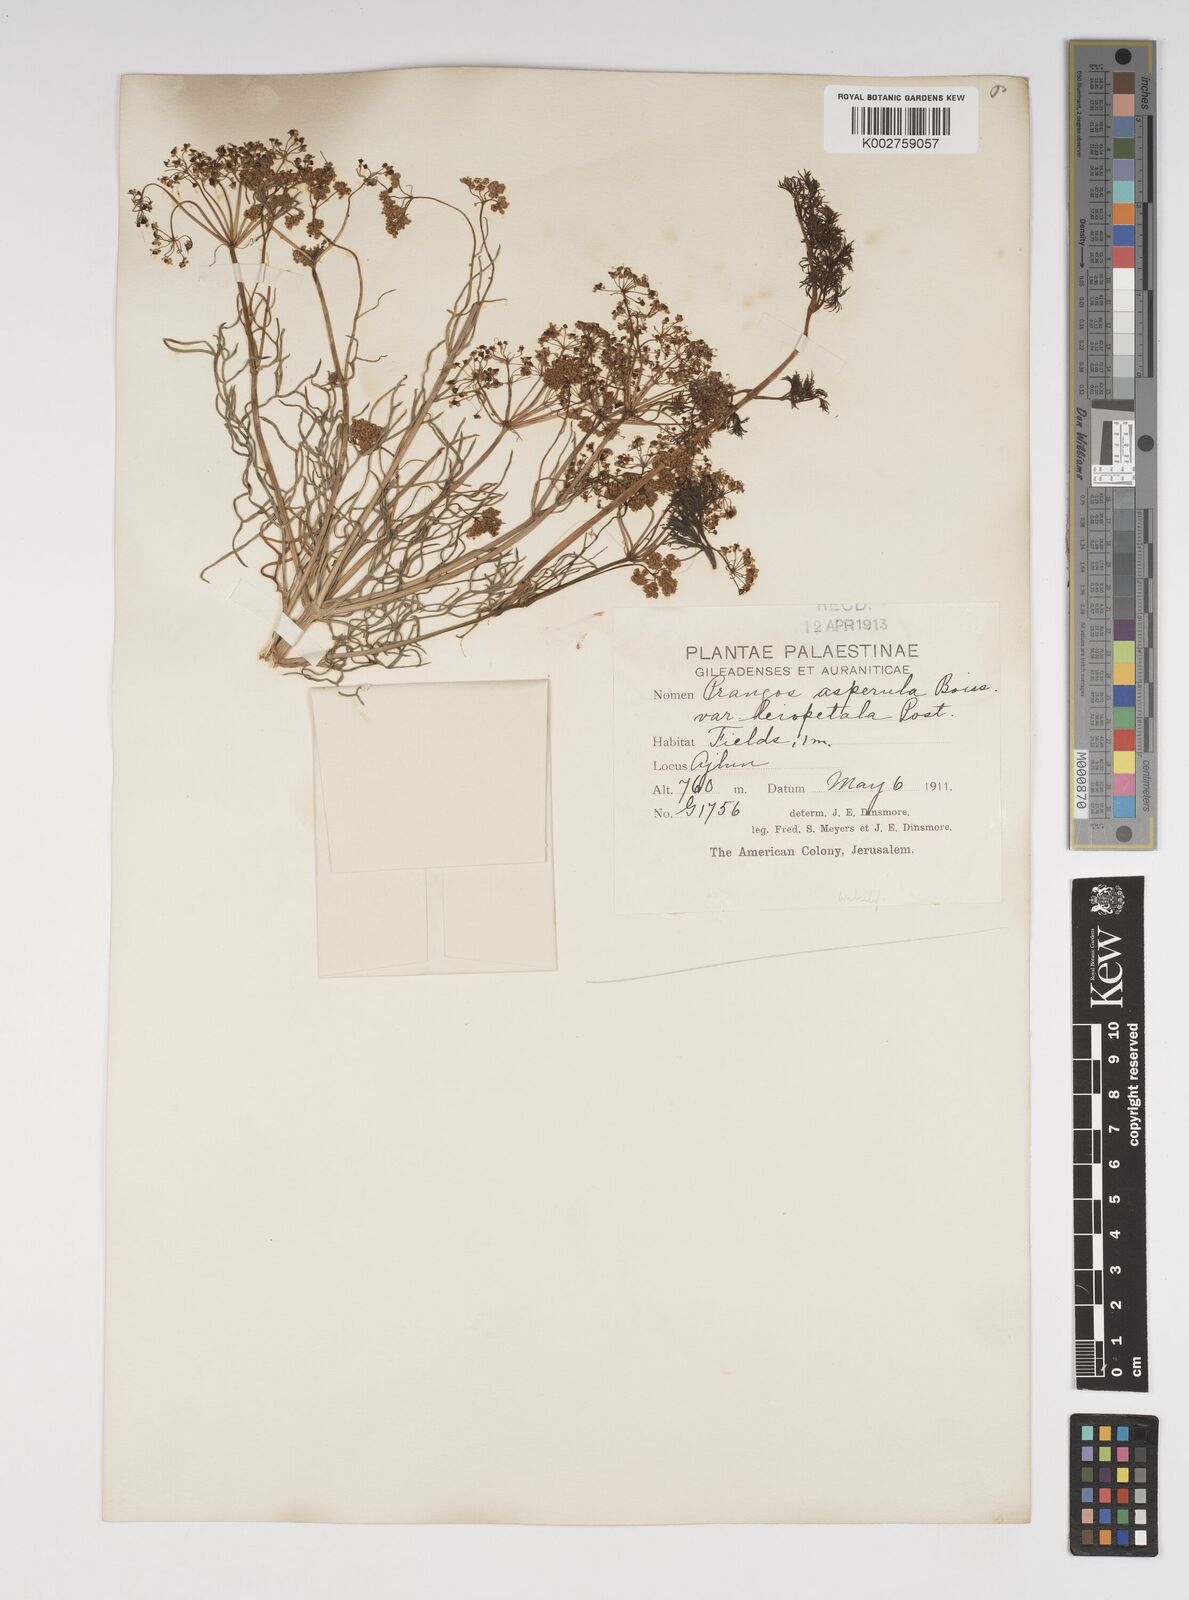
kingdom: Plantae
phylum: Tracheophyta
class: Magnoliopsida
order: Apiales
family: Apiaceae
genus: Prangos
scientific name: Prangos asperula
